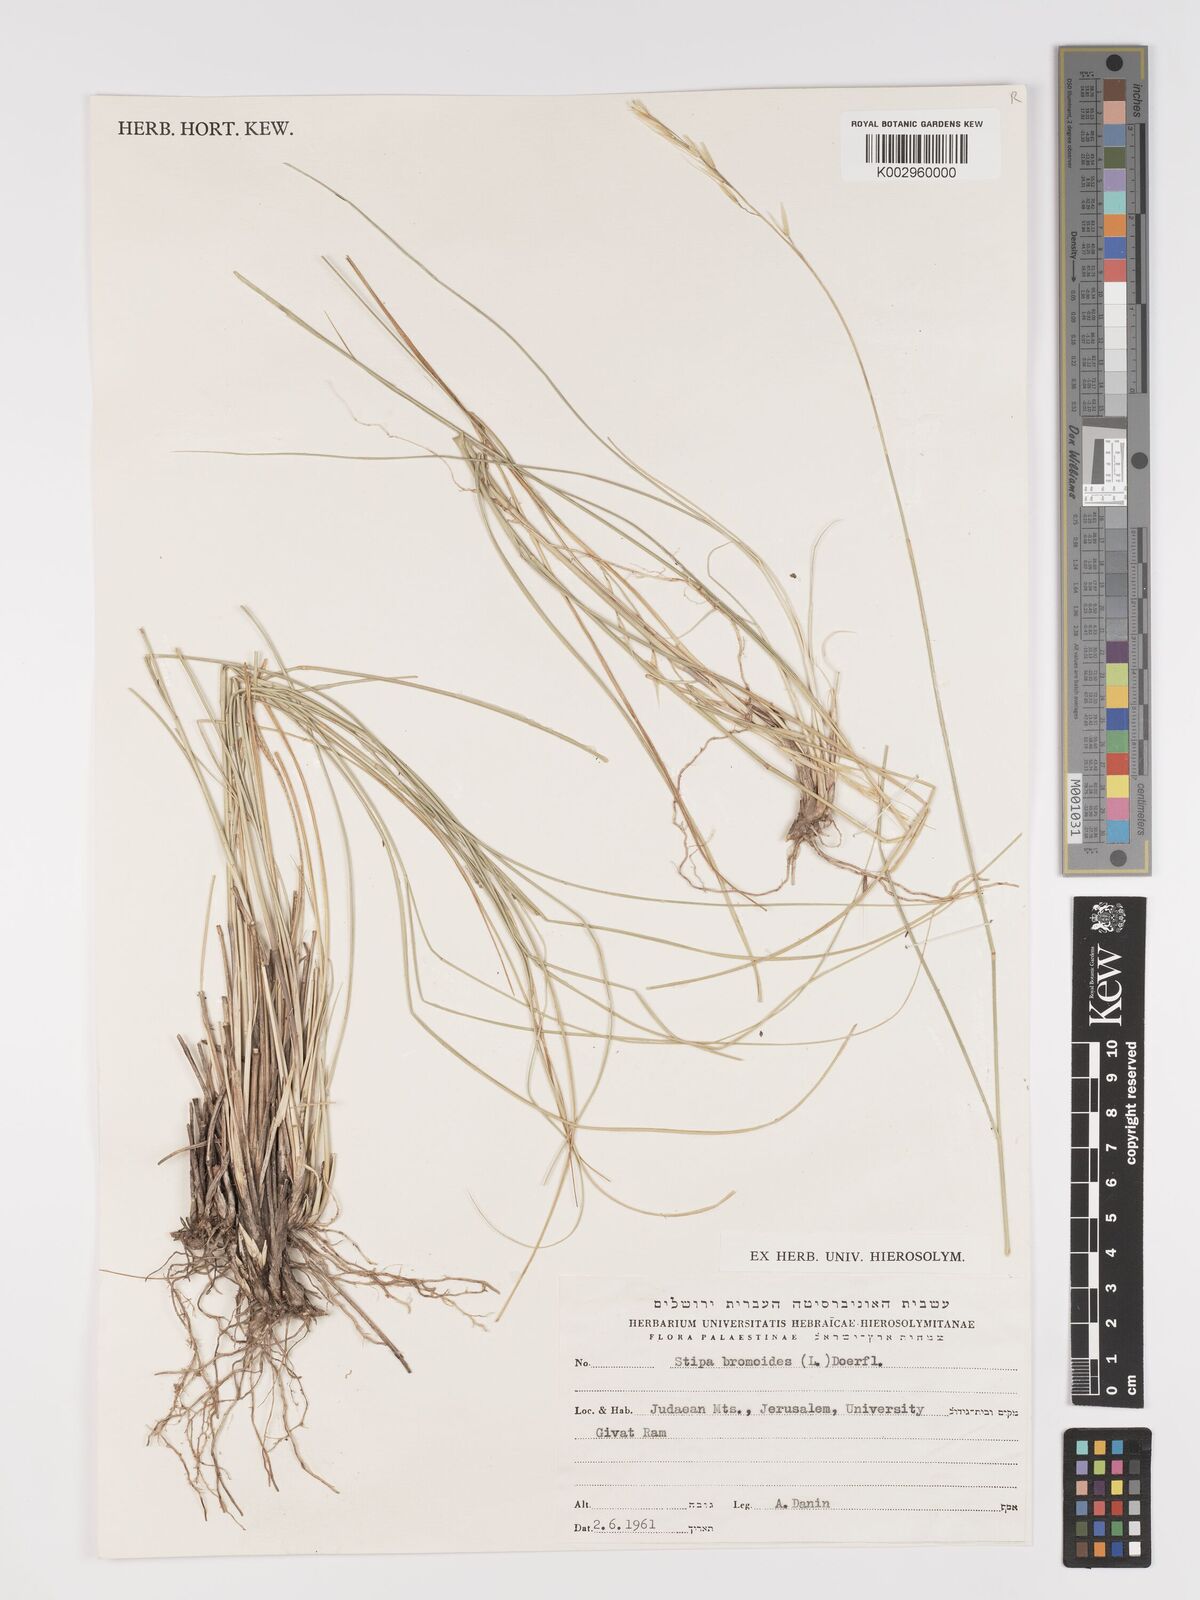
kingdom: Plantae
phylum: Tracheophyta
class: Liliopsida
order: Poales
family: Poaceae
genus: Achnatherum
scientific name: Achnatherum bromoides
